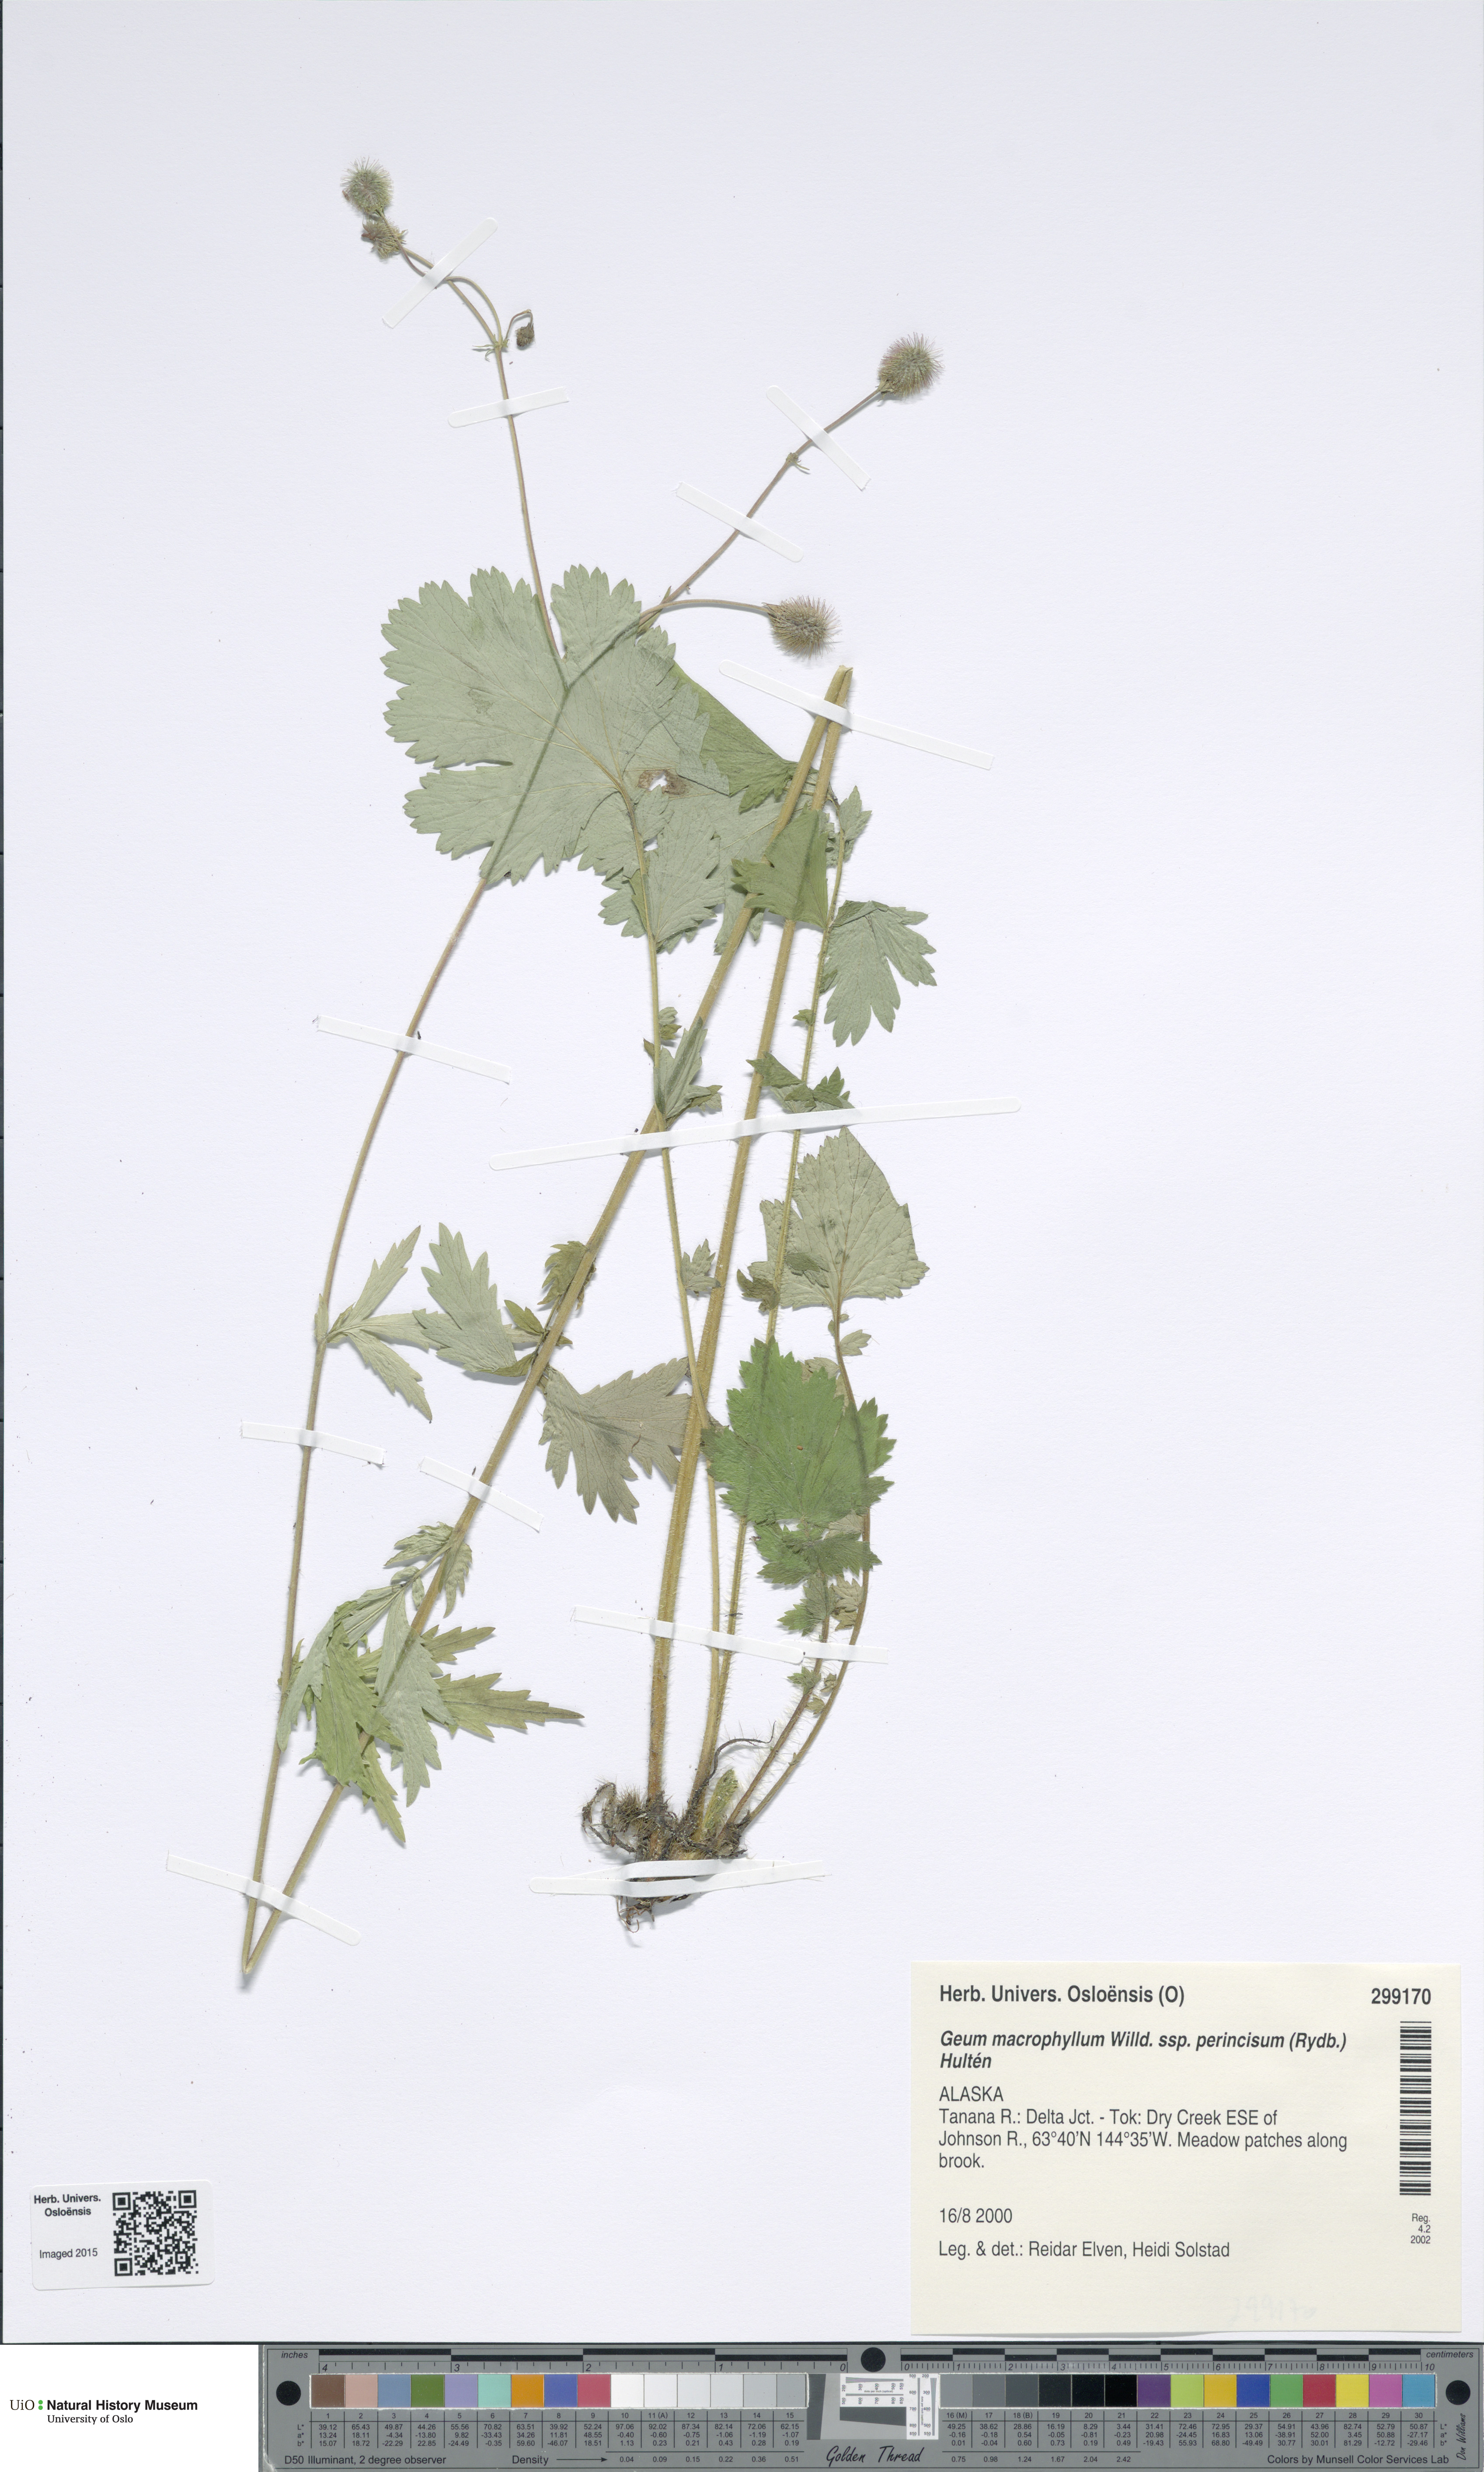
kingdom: Plantae
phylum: Tracheophyta
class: Magnoliopsida
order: Rosales
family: Rosaceae
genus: Geum
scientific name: Geum macrophyllum
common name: Large-leaved avens
